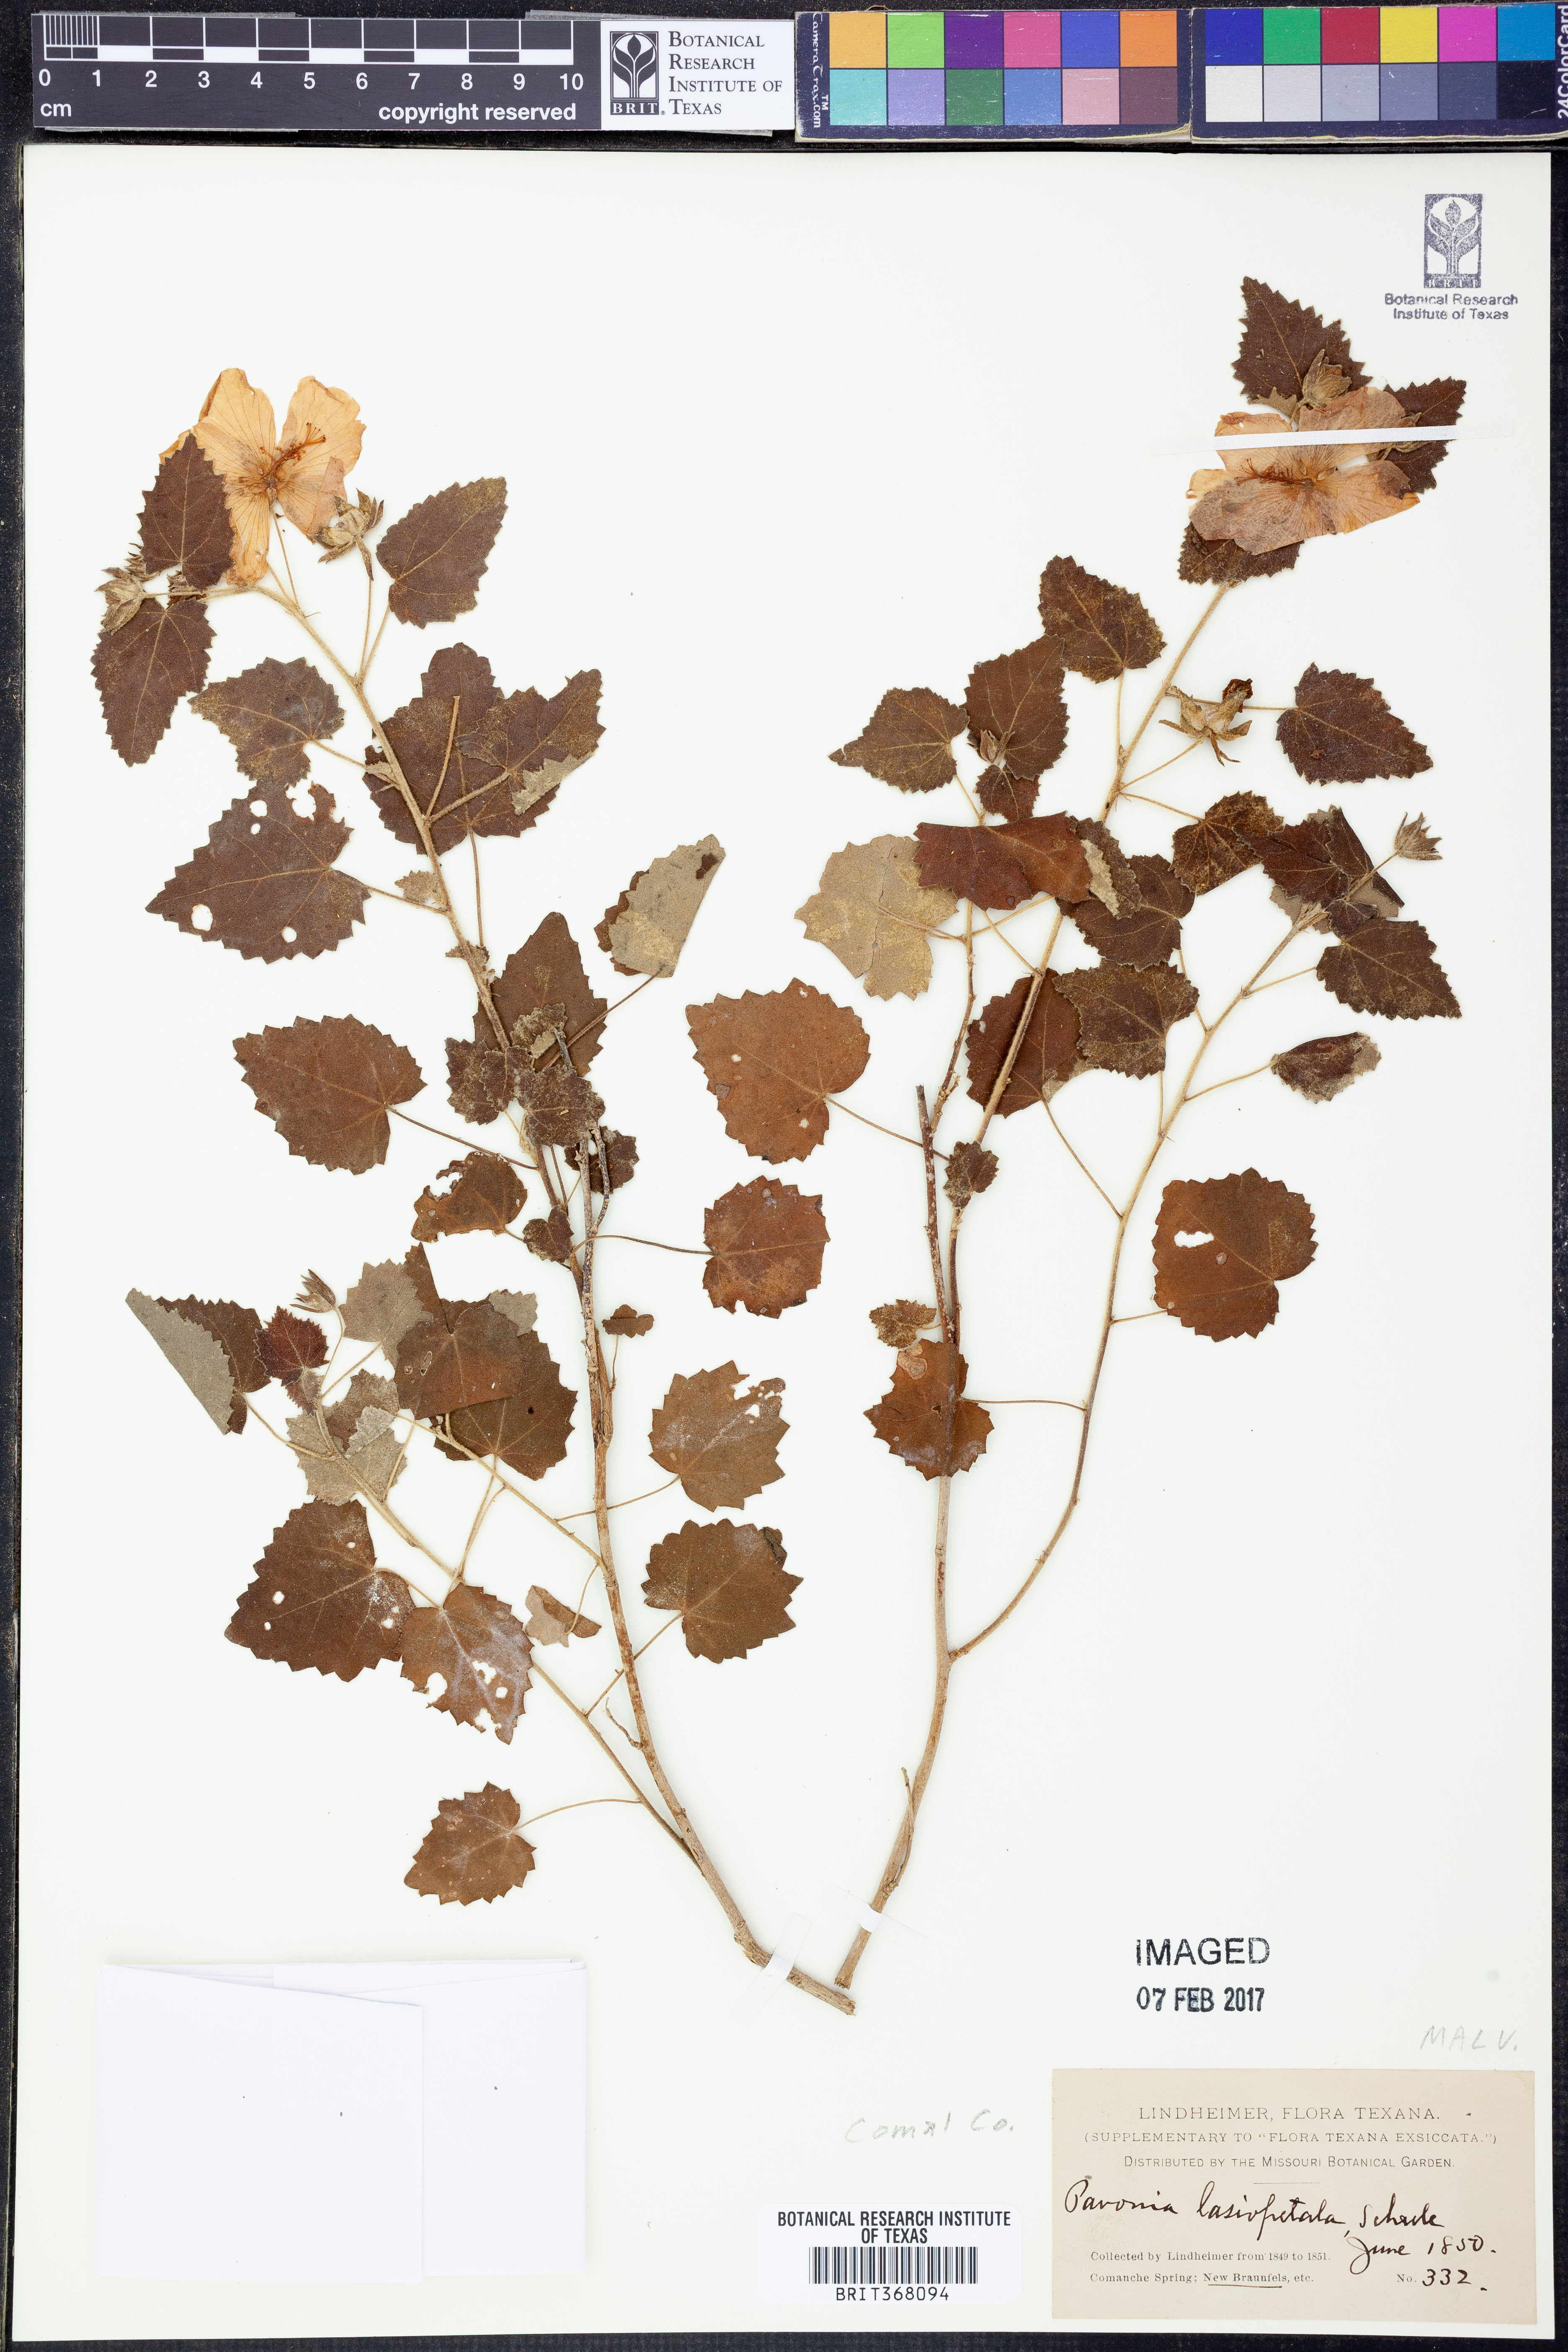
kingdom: Plantae
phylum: Tracheophyta
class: Magnoliopsida
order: Malvales
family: Malvaceae
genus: Pavonia
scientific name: Pavonia lasiopetala
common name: Texas swamp-mallow
